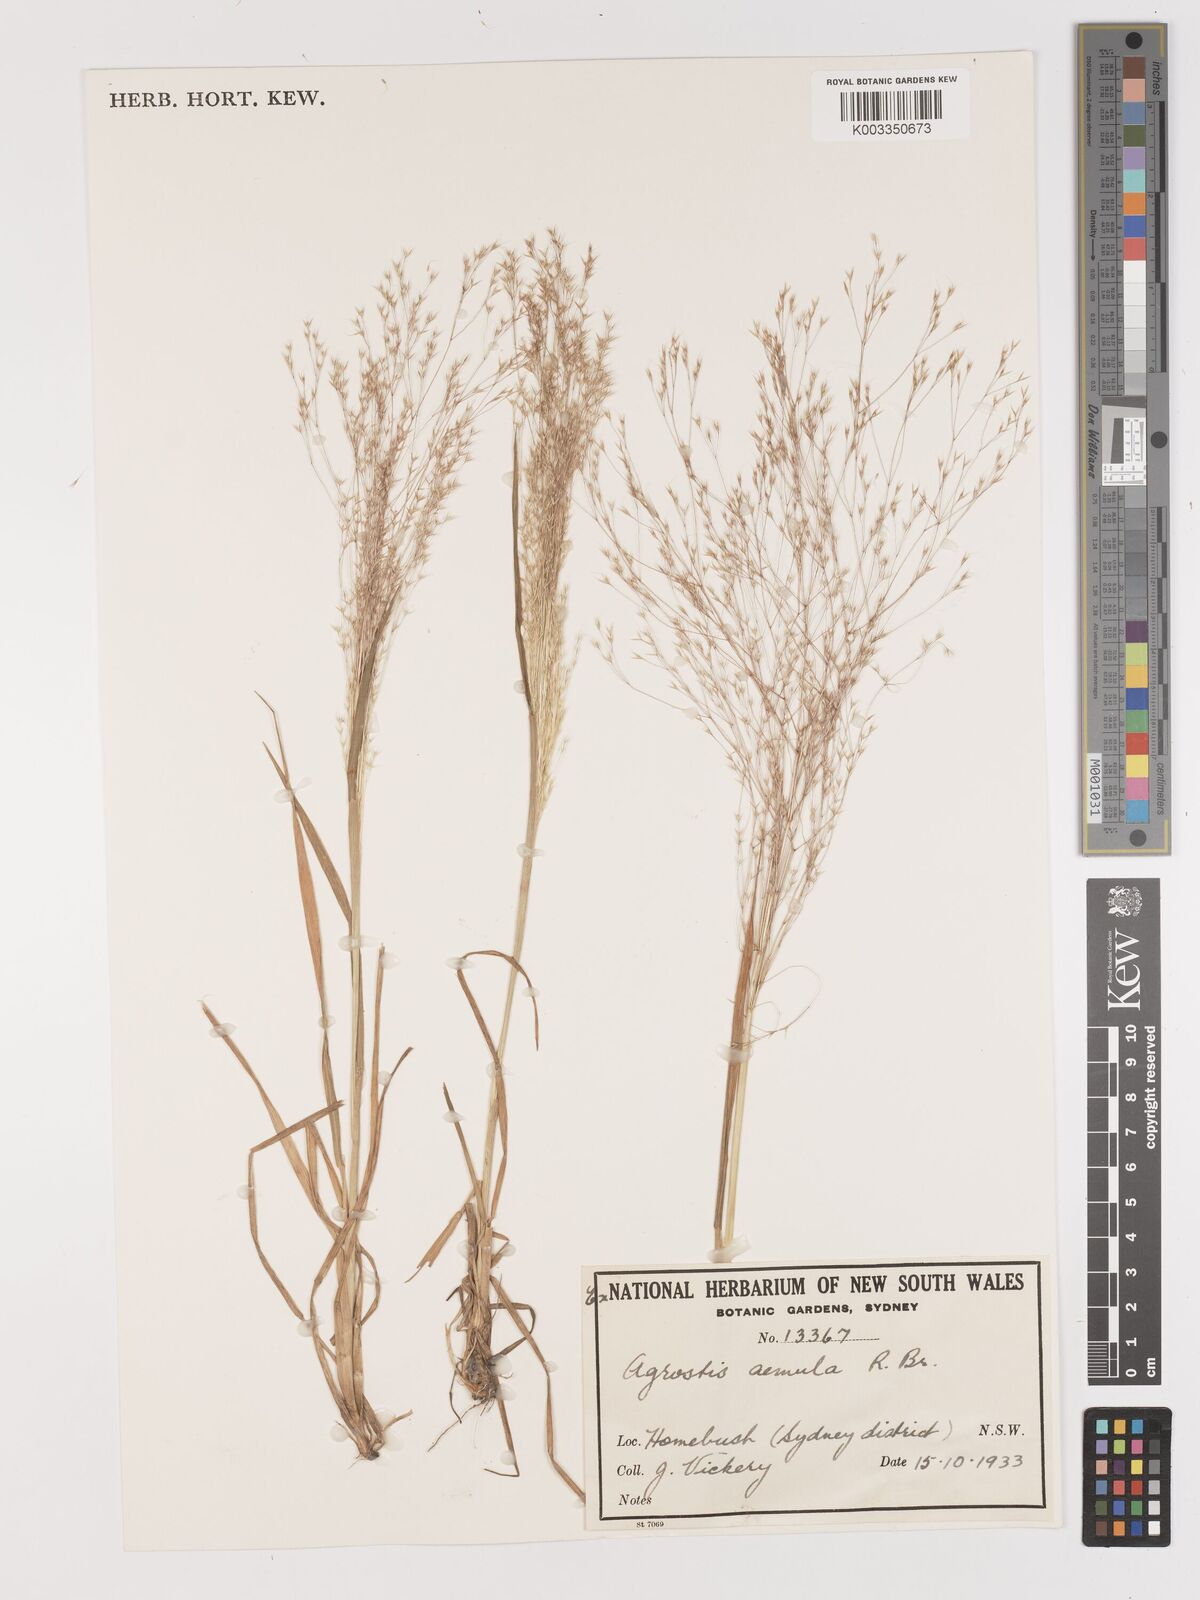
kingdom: Plantae
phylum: Tracheophyta
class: Liliopsida
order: Poales
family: Poaceae
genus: Lachnagrostis
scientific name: Lachnagrostis aemula
